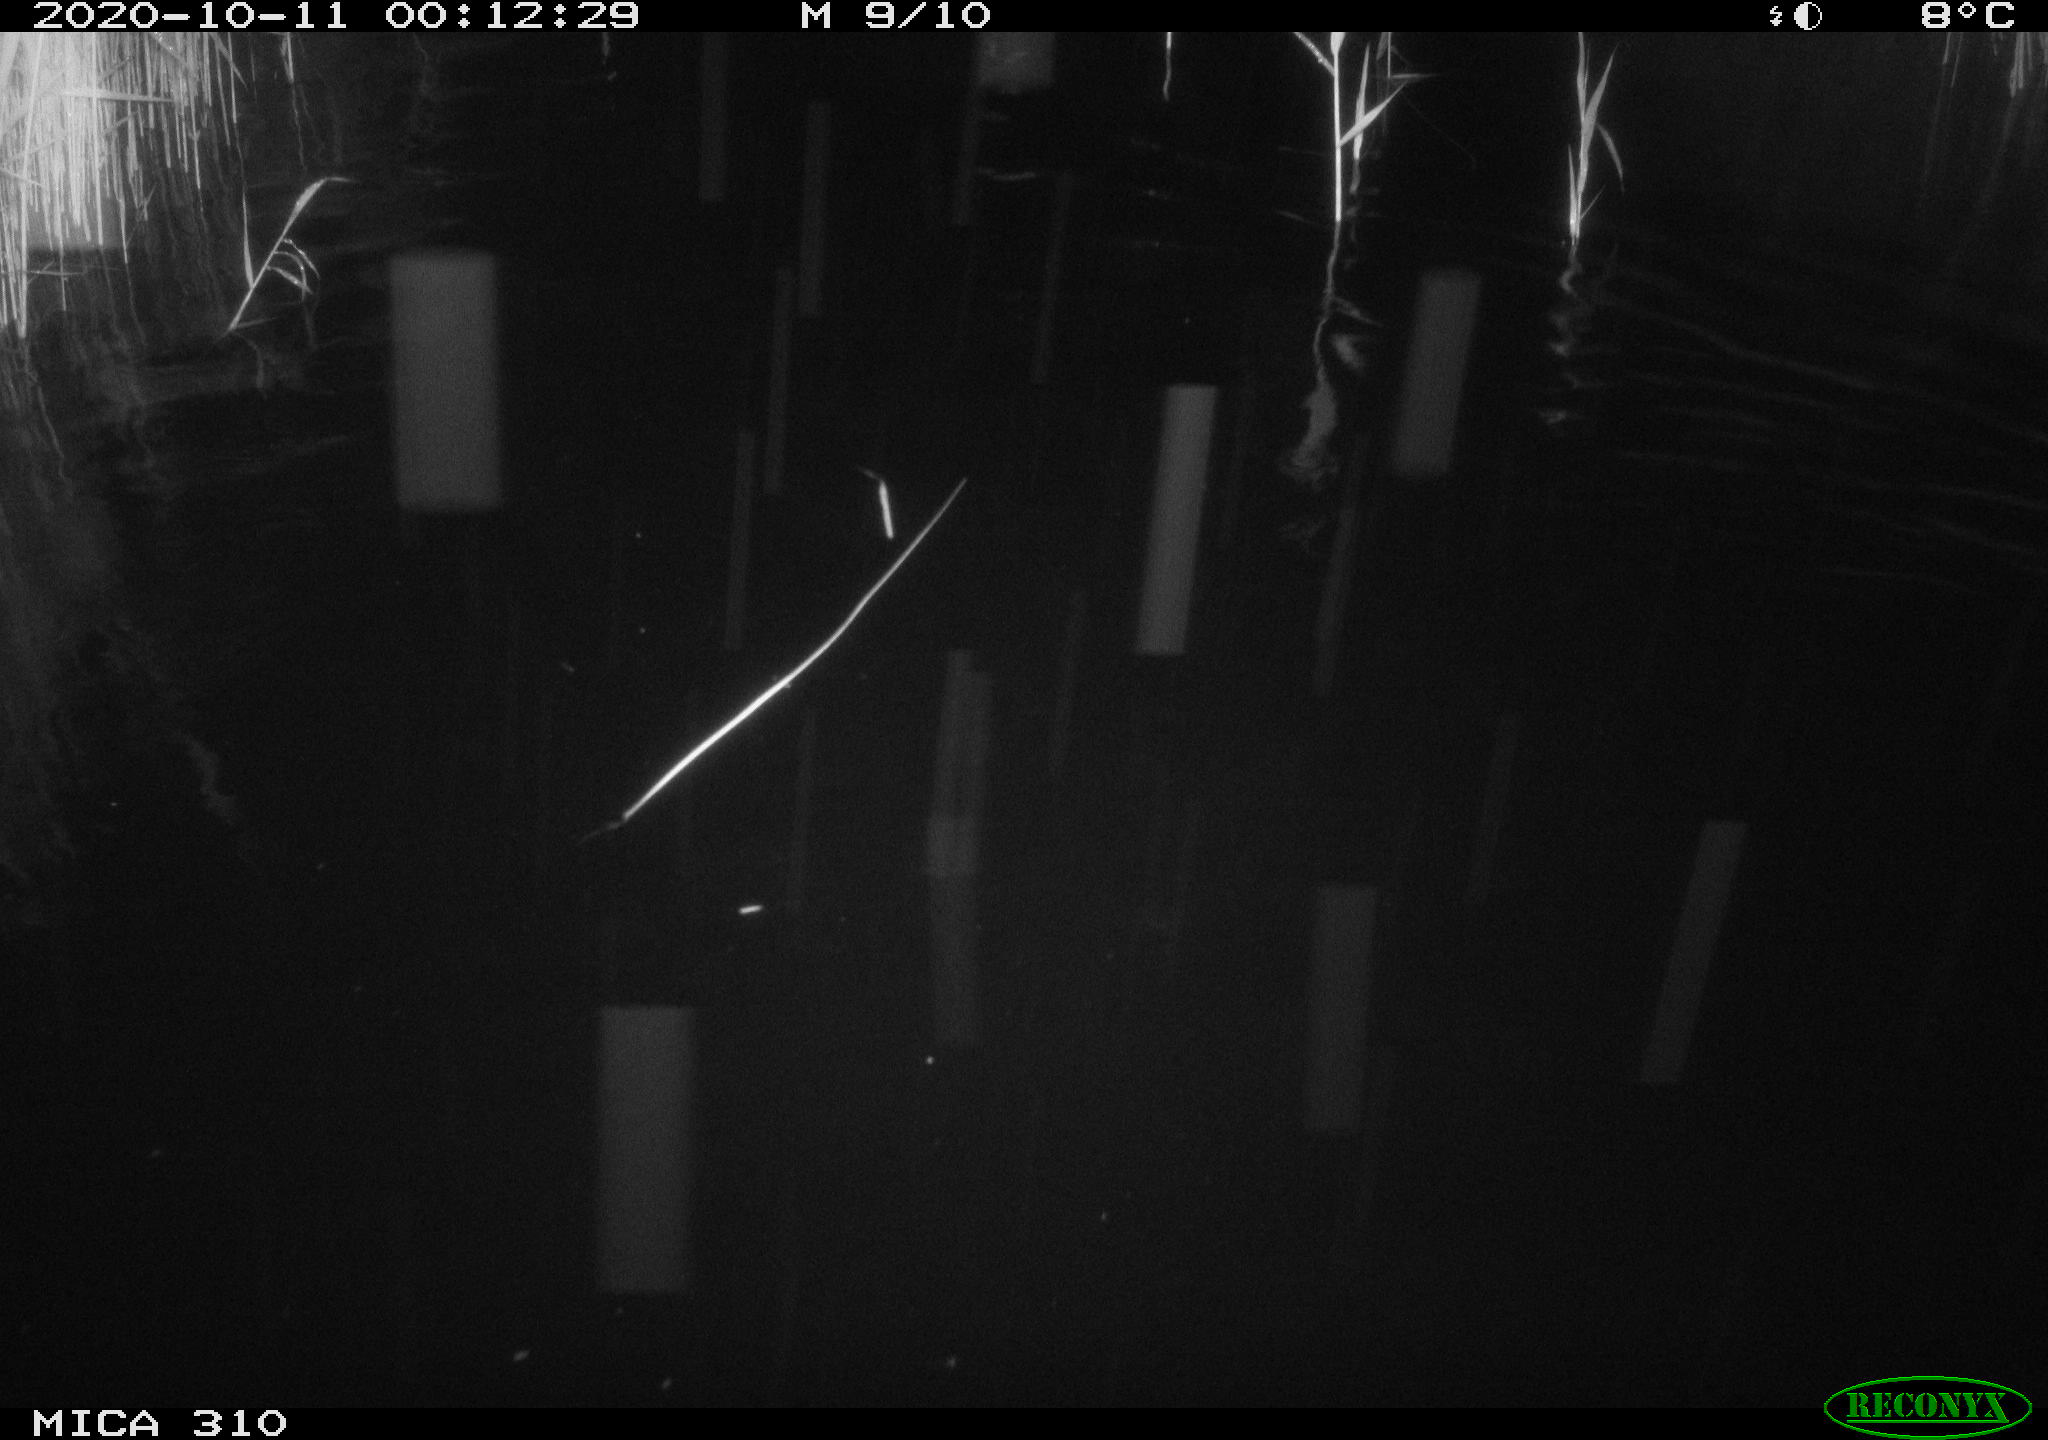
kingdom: Animalia
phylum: Chordata
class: Mammalia
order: Rodentia
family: Cricetidae
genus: Ondatra
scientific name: Ondatra zibethicus
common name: Muskrat
